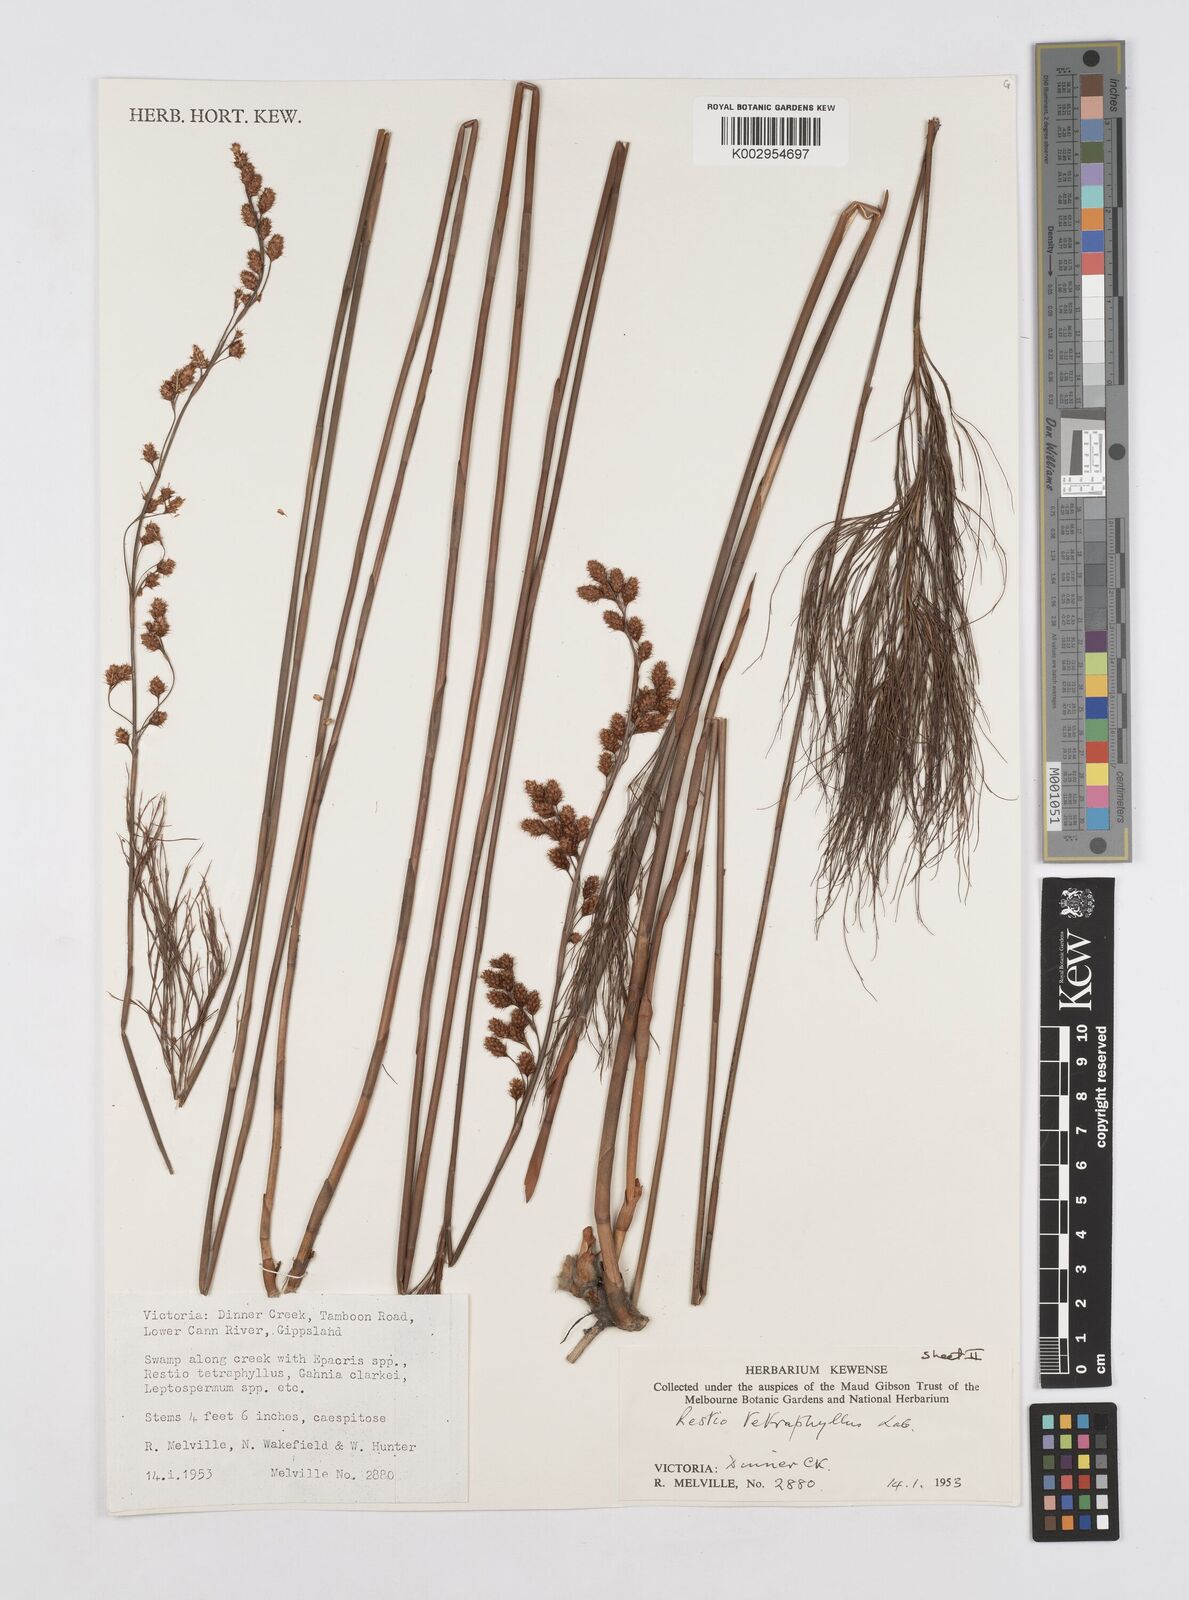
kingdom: Plantae
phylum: Tracheophyta
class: Liliopsida
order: Poales
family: Restionaceae
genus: Baloskion
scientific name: Baloskion tetraphyllum
